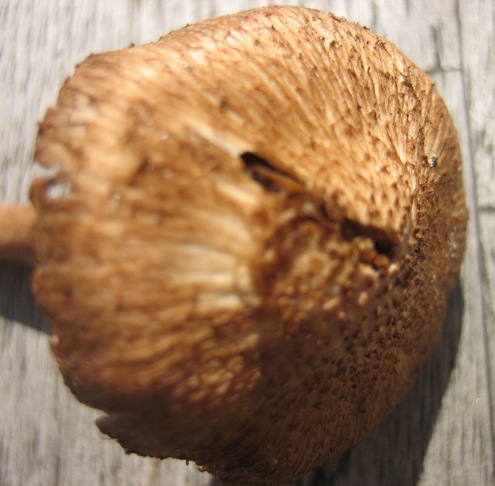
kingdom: Fungi
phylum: Basidiomycota
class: Agaricomycetes
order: Agaricales
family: Inocybaceae
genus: Inocybe
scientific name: Inocybe napipes
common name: roeknoldet trævlhat
